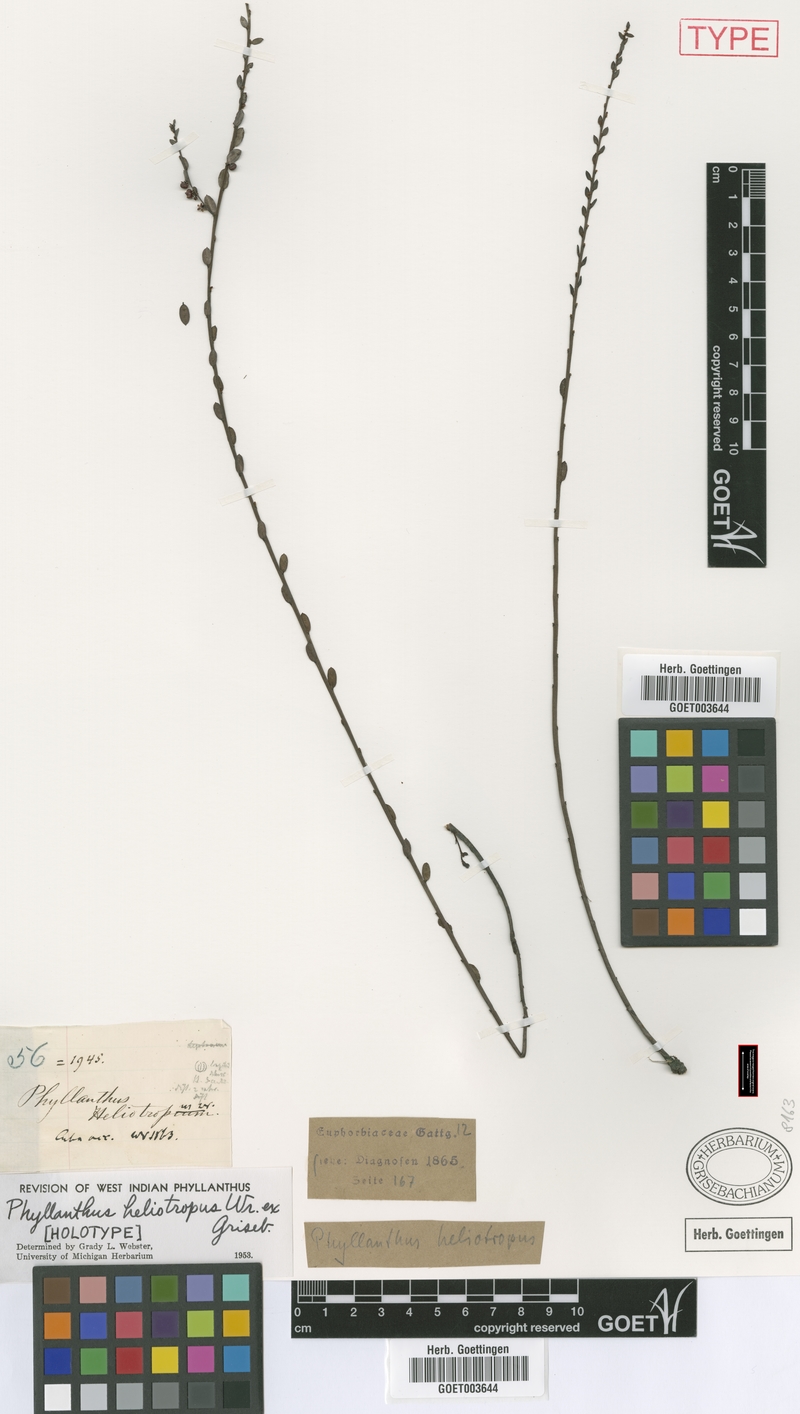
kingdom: Plantae
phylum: Tracheophyta
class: Magnoliopsida
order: Malpighiales
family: Phyllanthaceae
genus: Phyllanthus
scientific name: Phyllanthus heliotropus
